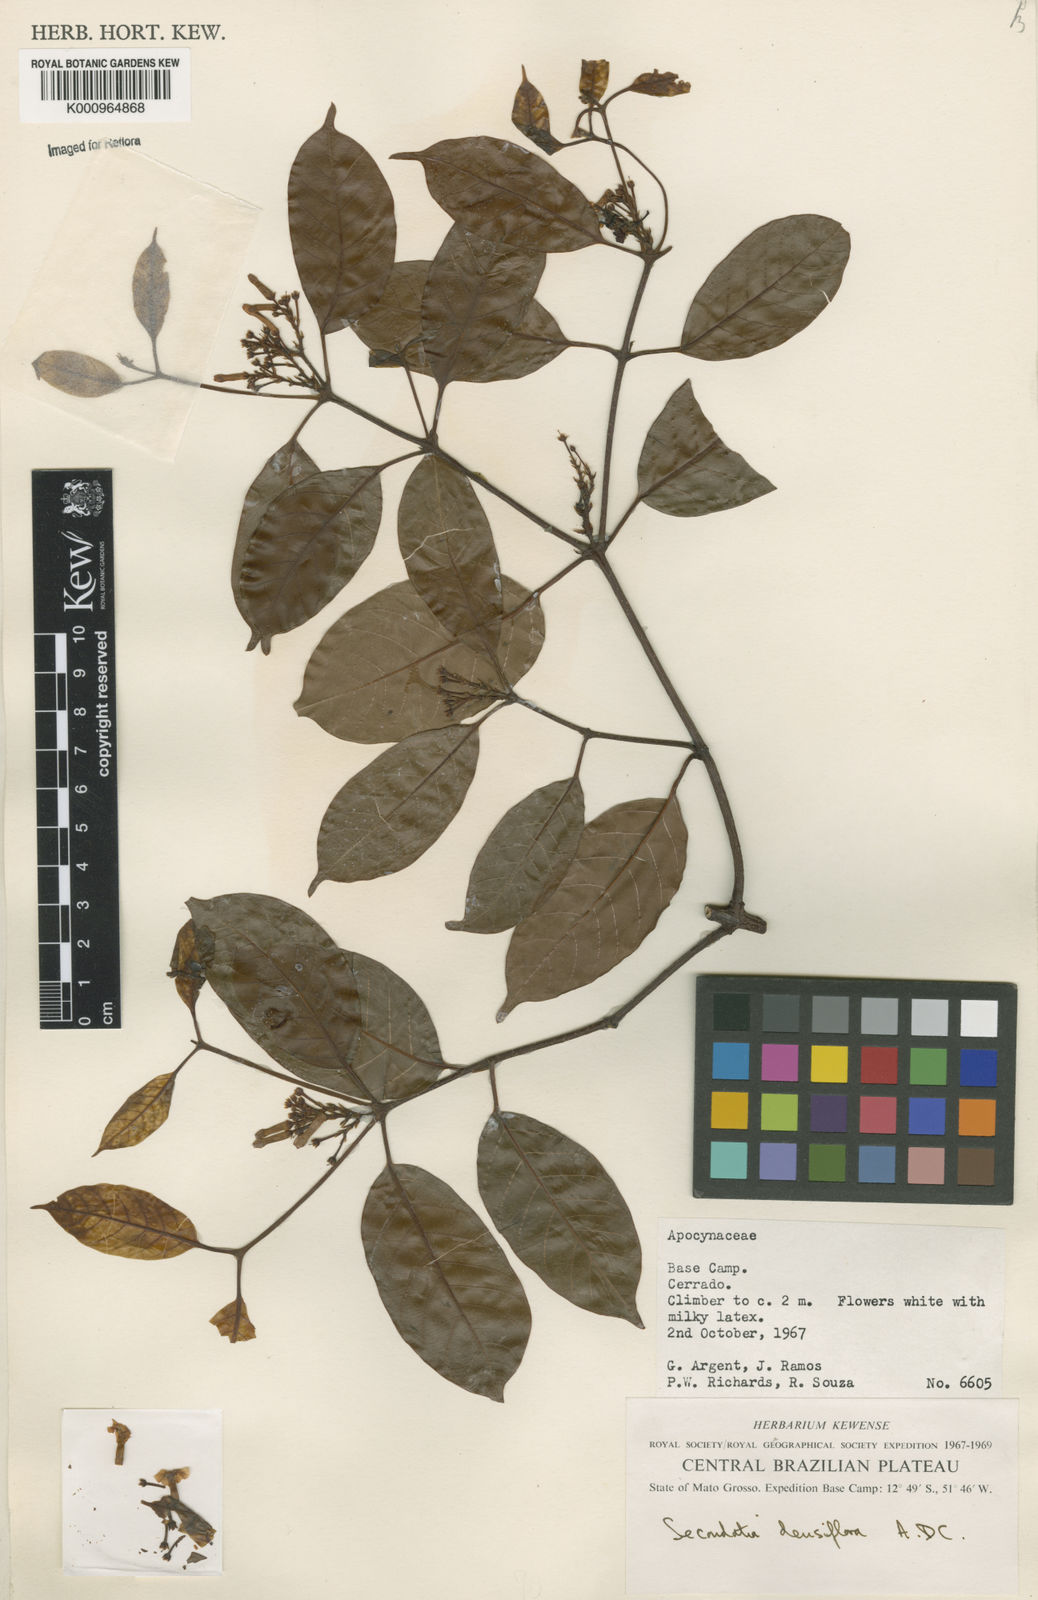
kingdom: Plantae
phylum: Tracheophyta
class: Magnoliopsida
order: Gentianales
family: Apocynaceae
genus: Secondatia
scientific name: Secondatia densiflora
